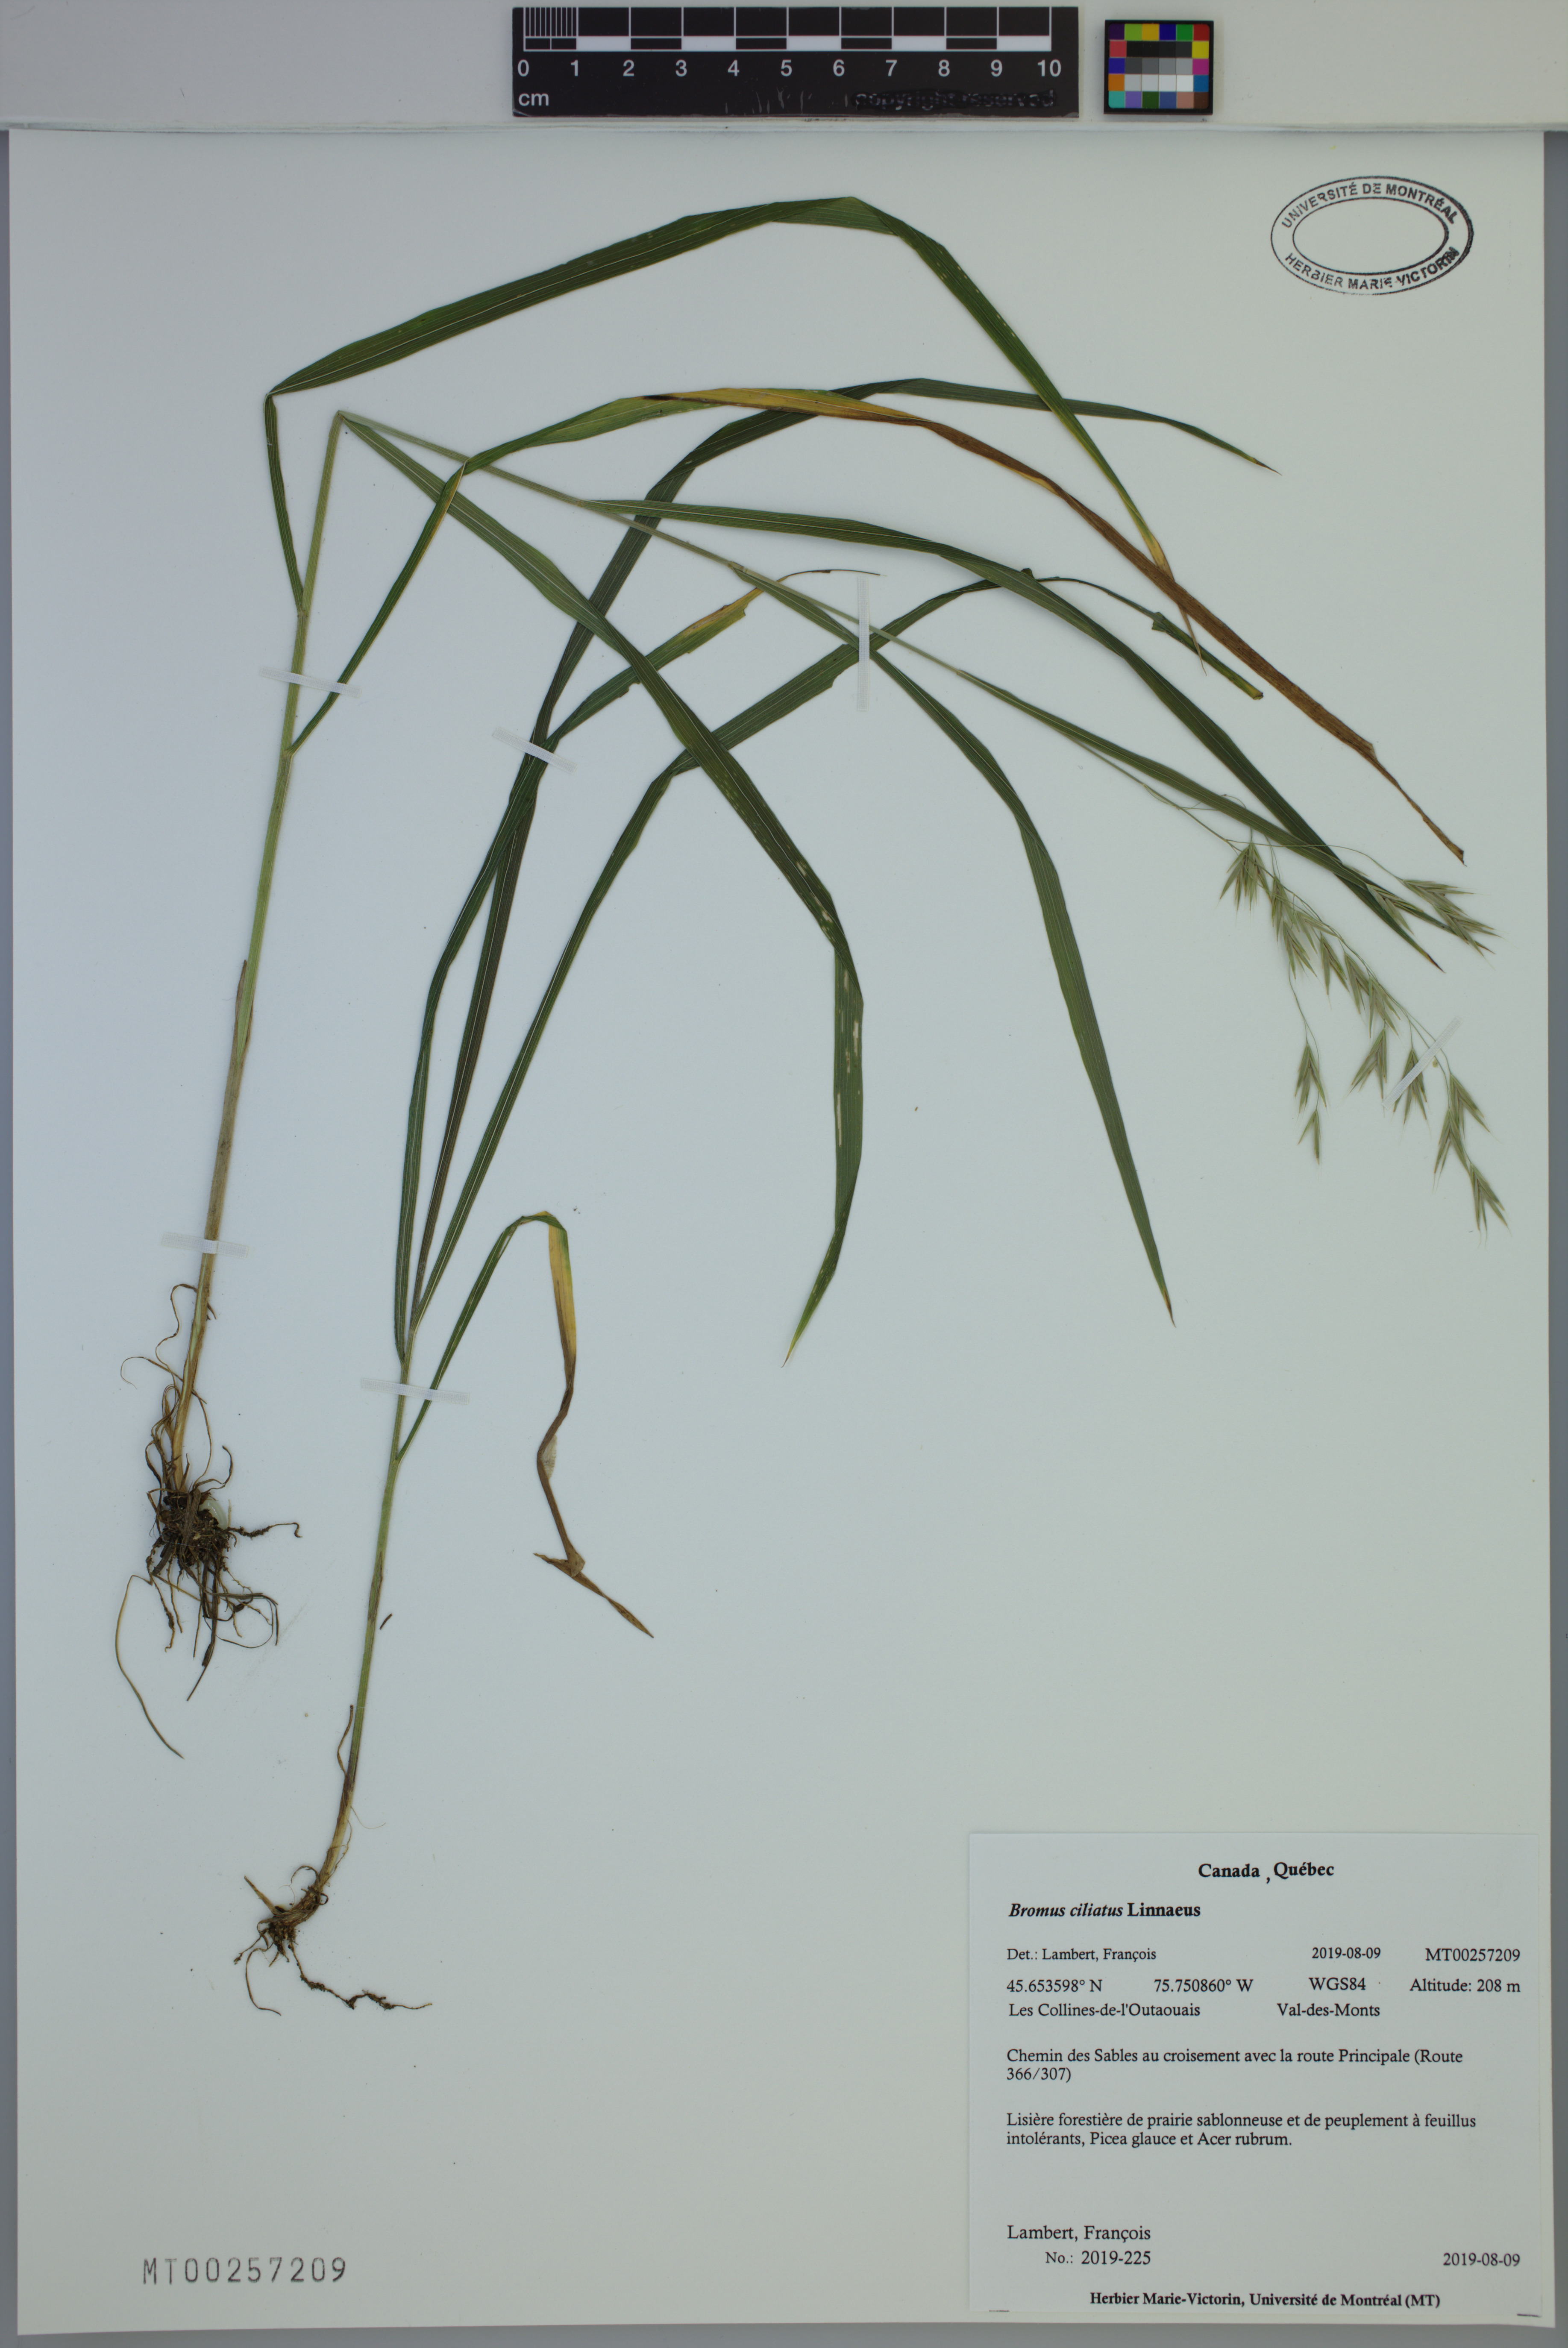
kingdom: Plantae
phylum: Tracheophyta
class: Liliopsida
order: Poales
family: Poaceae
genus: Bromus
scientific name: Bromus ciliatus
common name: Fringe brome
